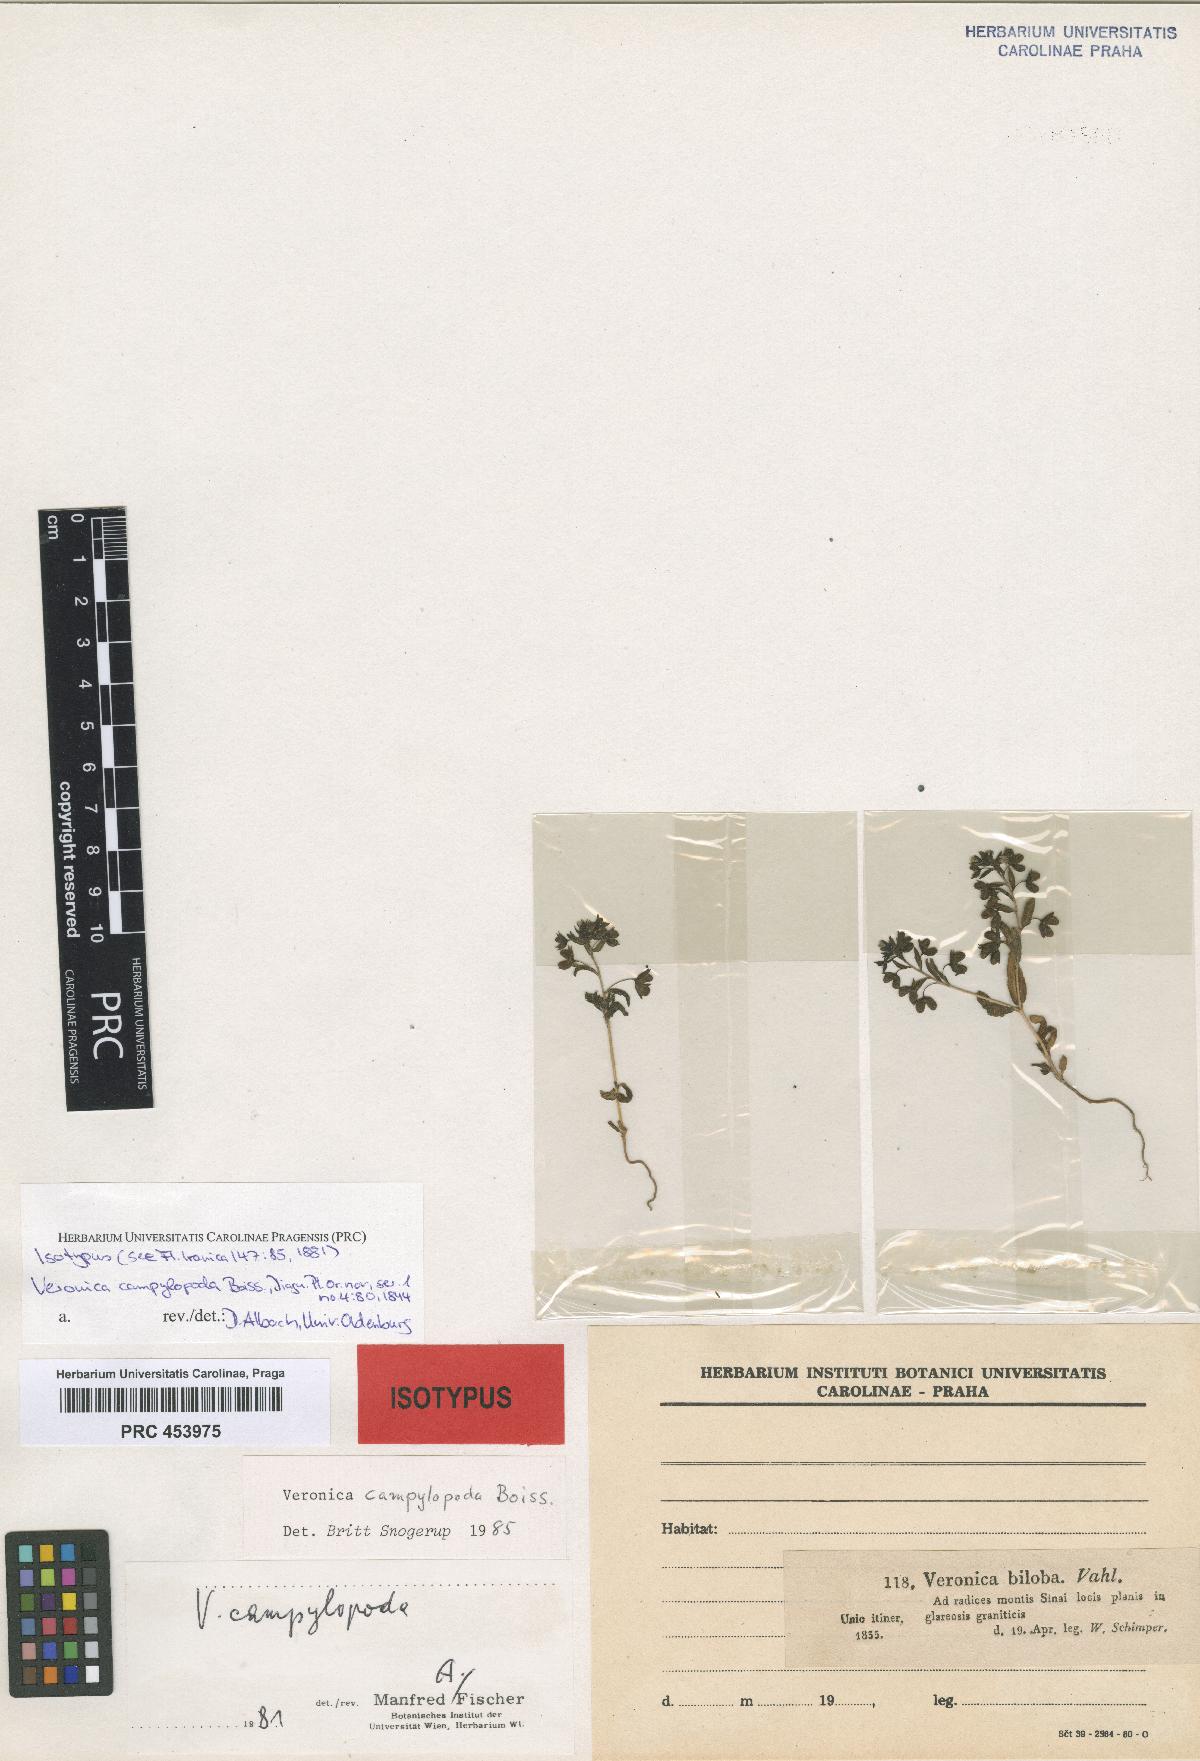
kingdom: Plantae
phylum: Tracheophyta
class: Magnoliopsida
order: Lamiales
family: Scrophulariaceae
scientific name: Scrophulariaceae
